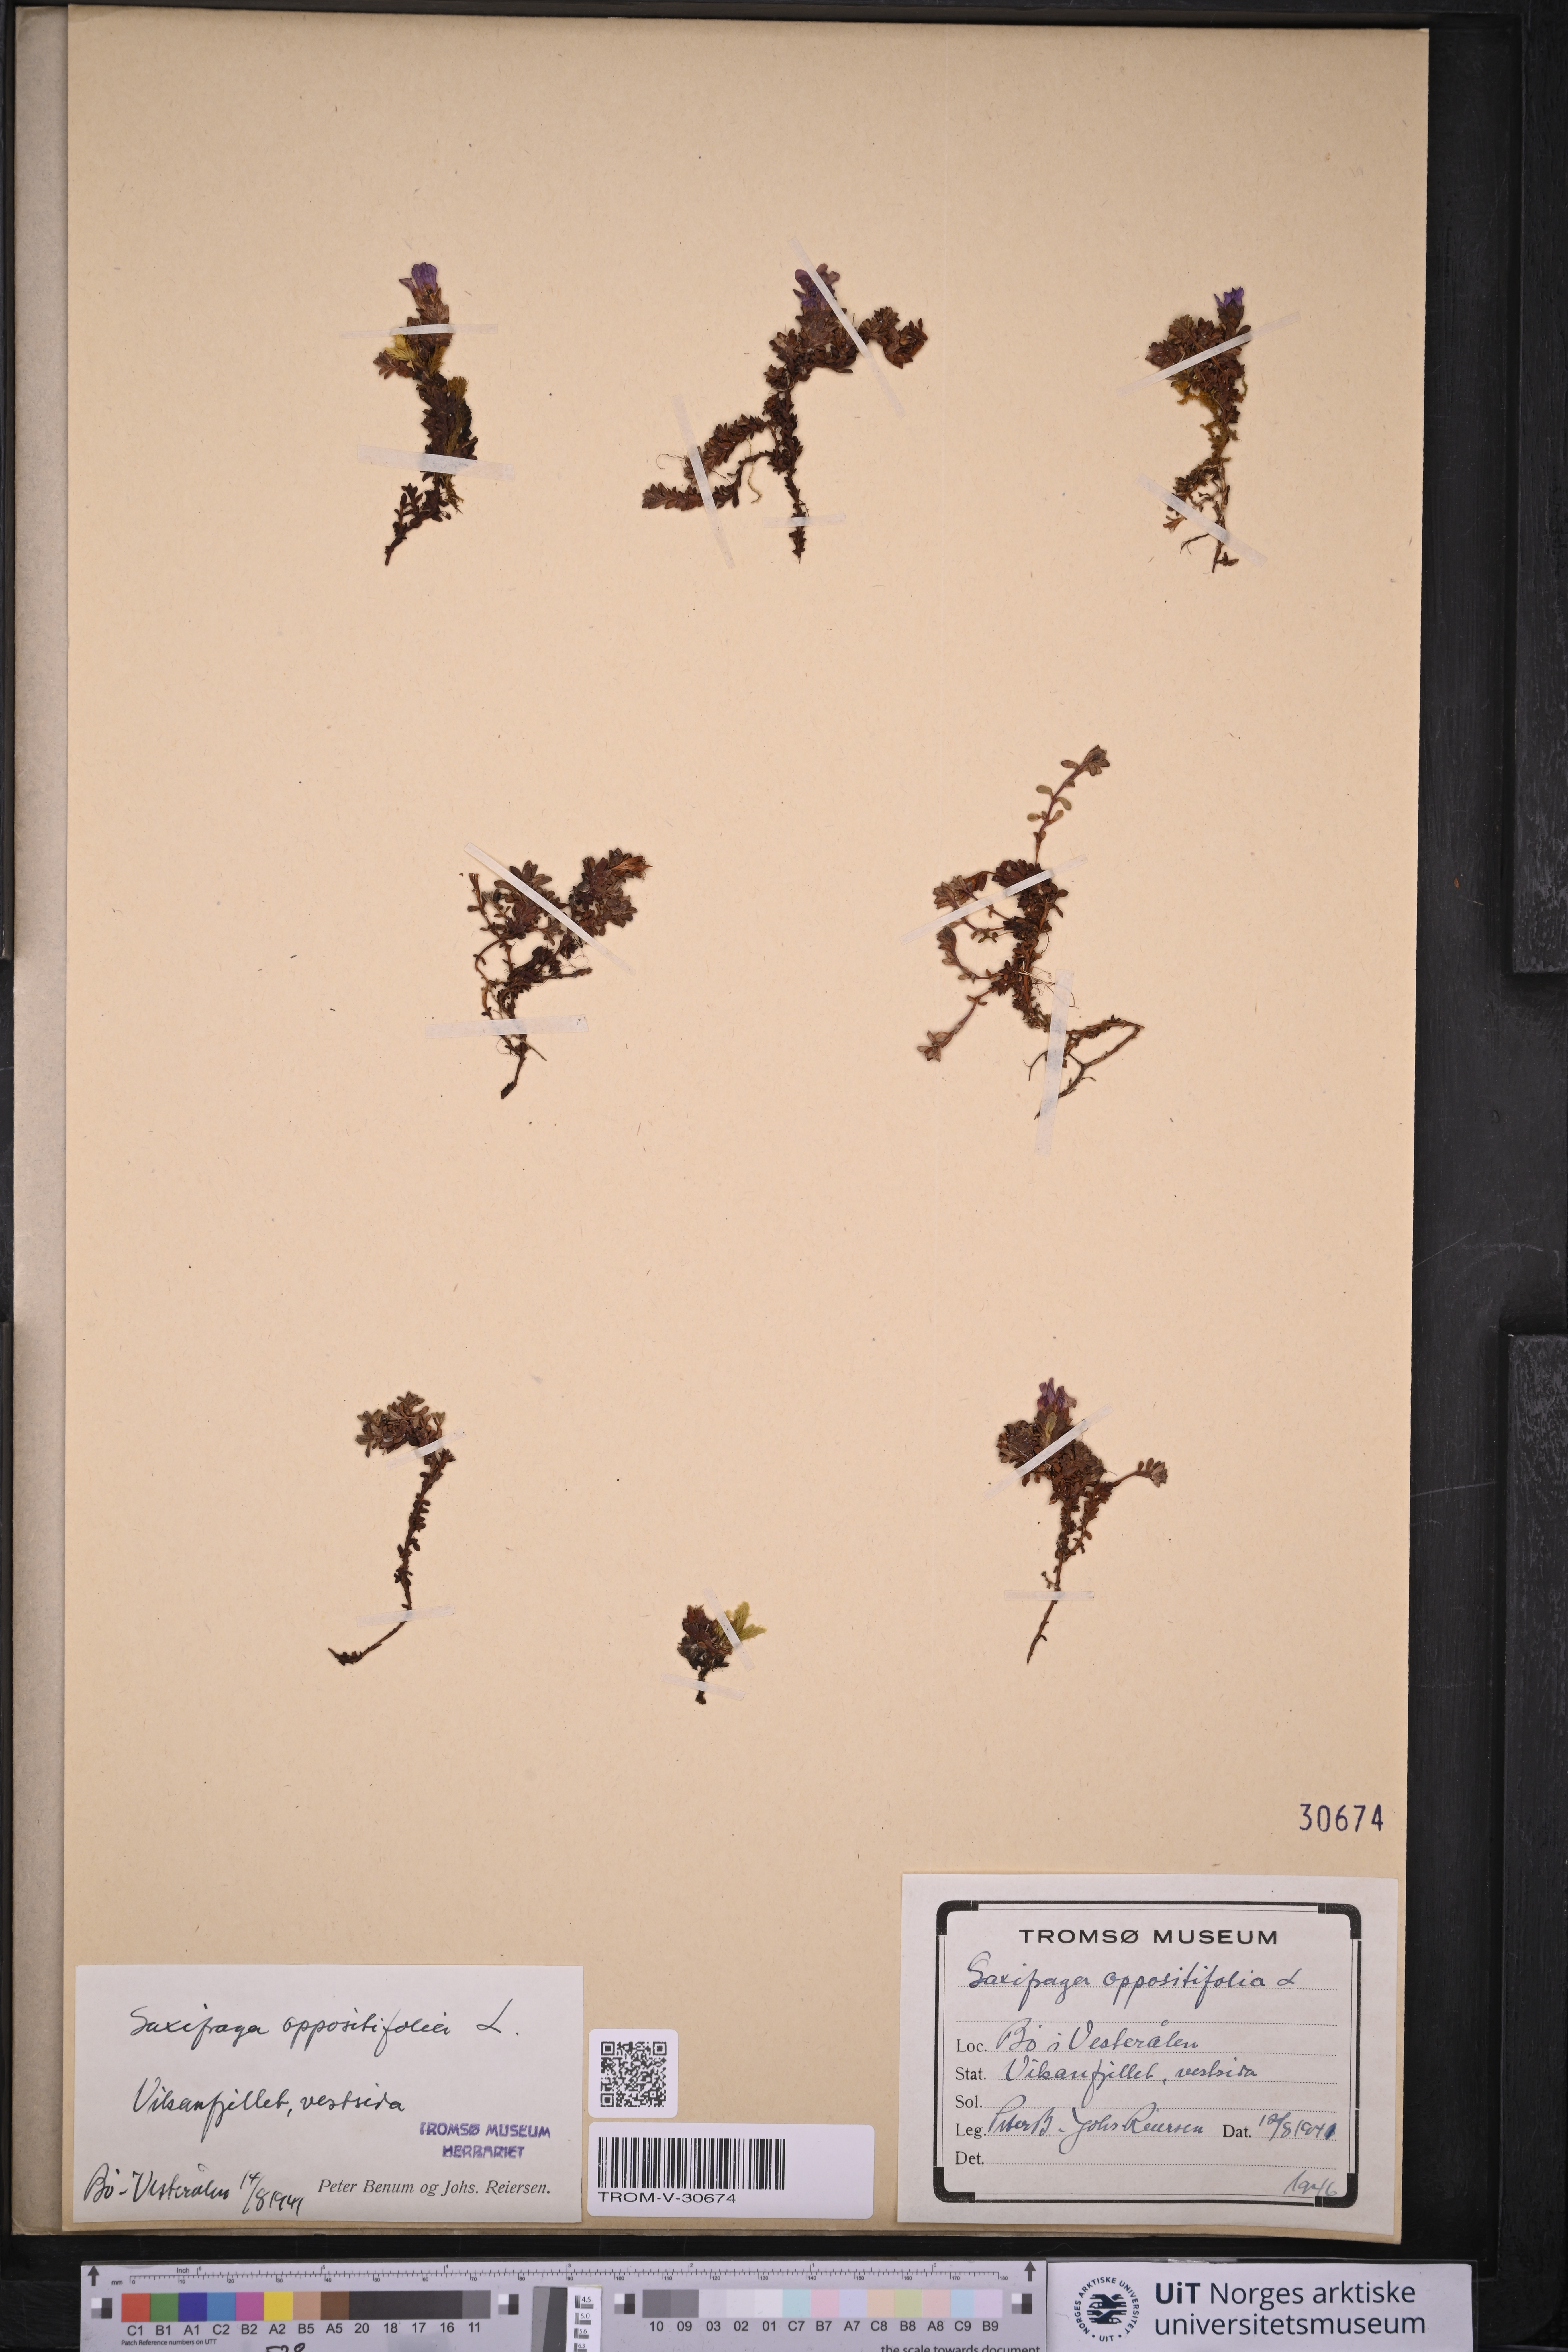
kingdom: Plantae
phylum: Tracheophyta
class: Magnoliopsida
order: Saxifragales
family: Saxifragaceae
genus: Saxifraga
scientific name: Saxifraga oppositifolia
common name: Purple saxifrage
